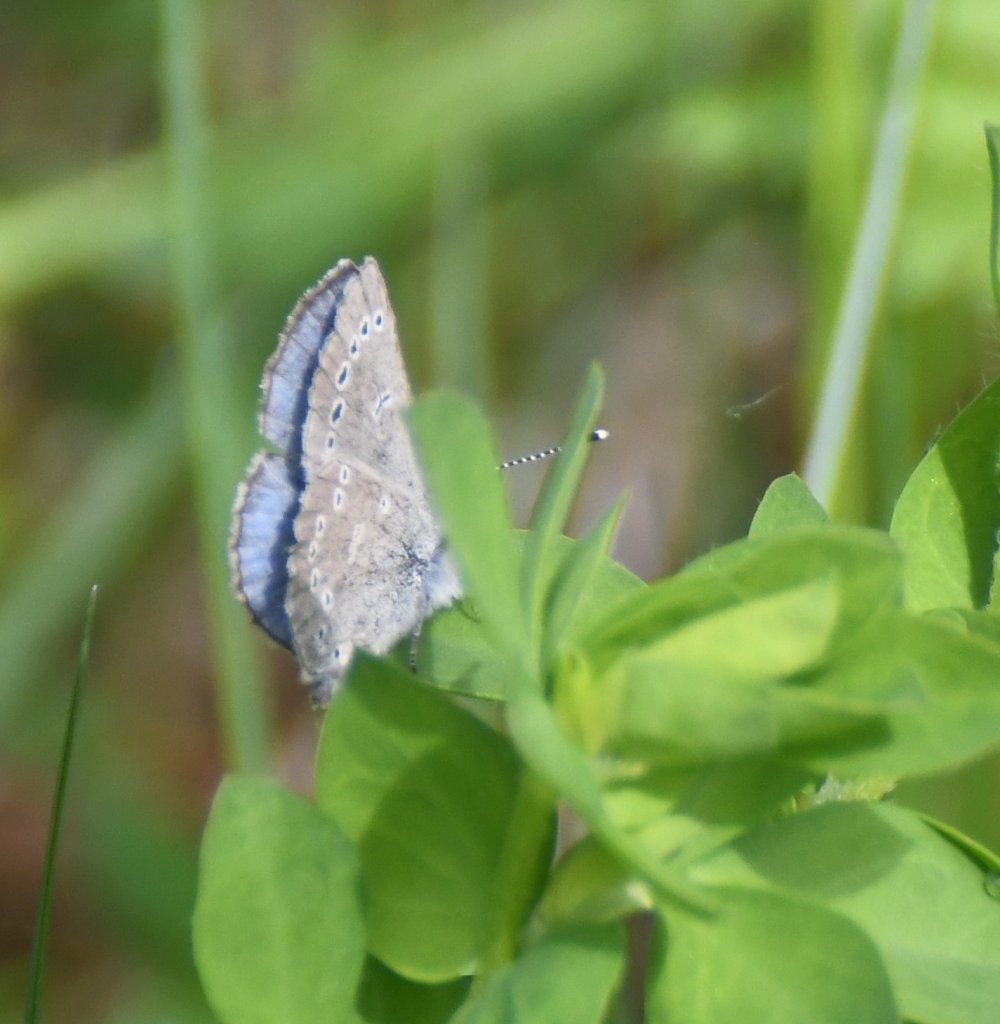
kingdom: Animalia
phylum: Arthropoda
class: Insecta
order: Lepidoptera
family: Lycaenidae
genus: Glaucopsyche
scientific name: Glaucopsyche lygdamus
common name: Silvery Blue
